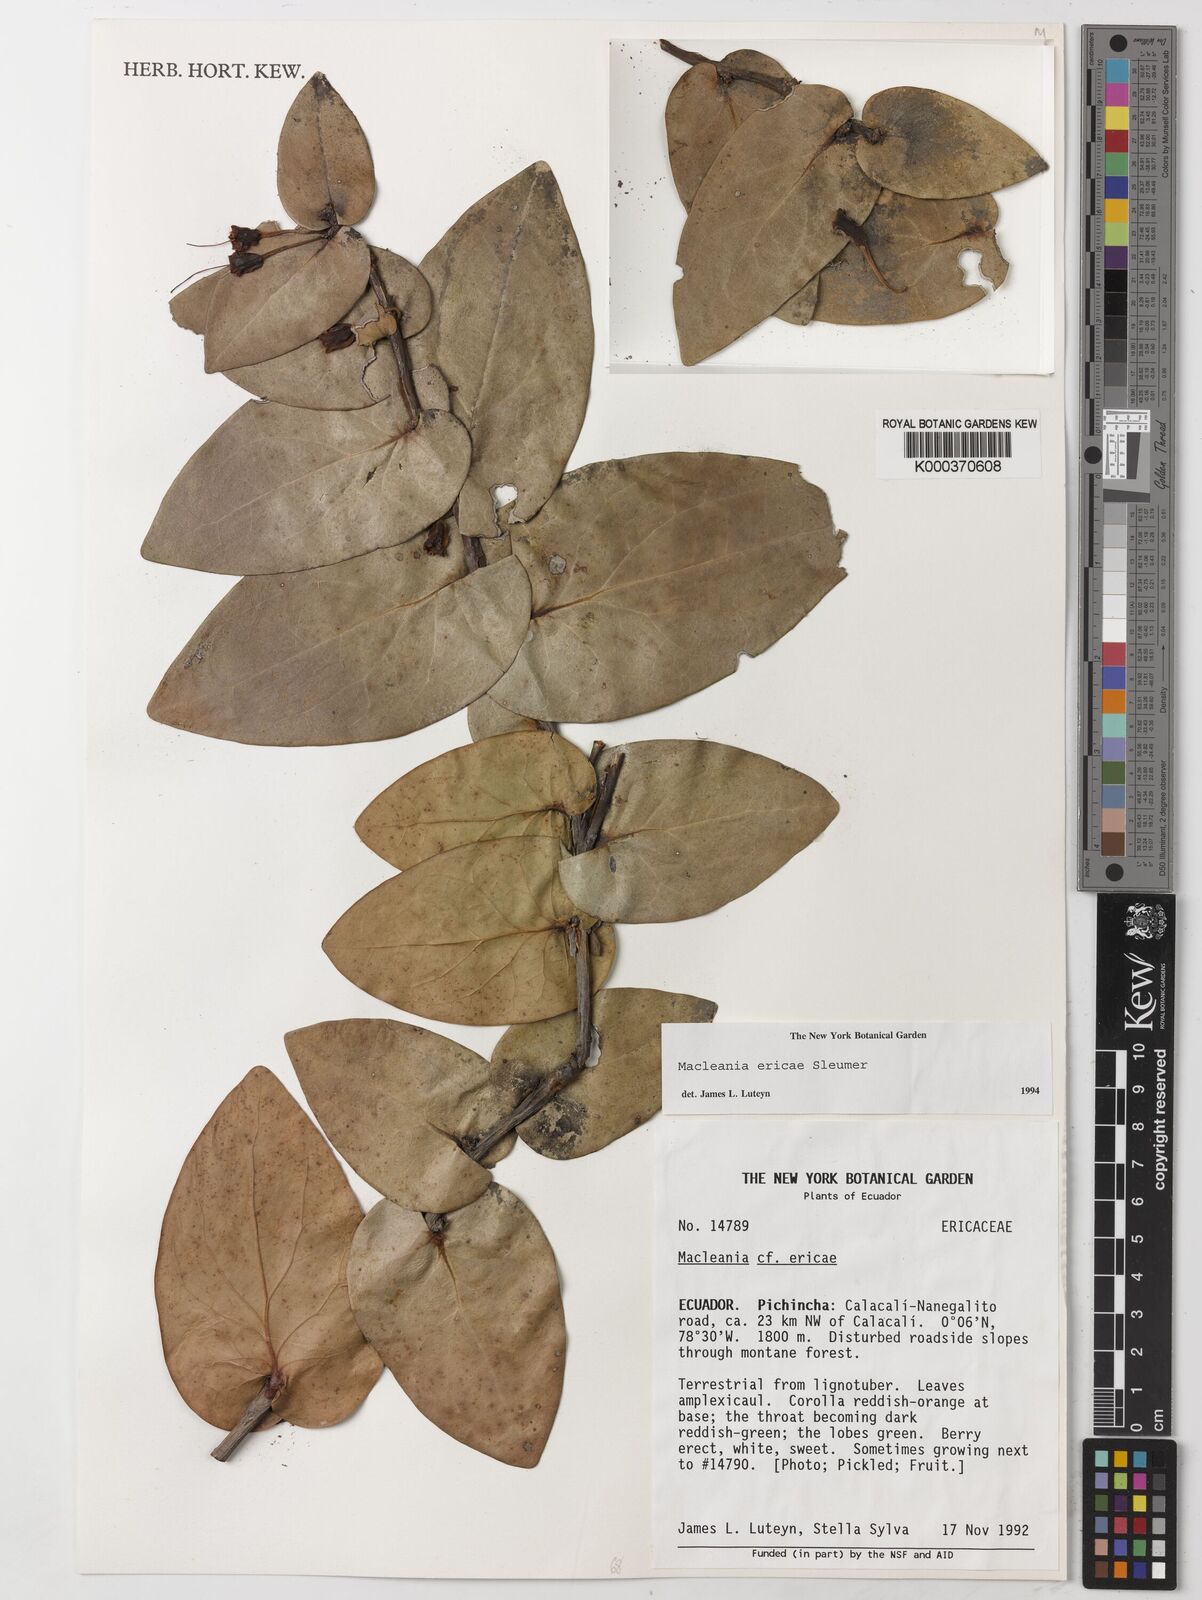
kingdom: Plantae
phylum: Tracheophyta
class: Magnoliopsida
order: Ericales
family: Ericaceae
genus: Macleania
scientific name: Macleania ericae
